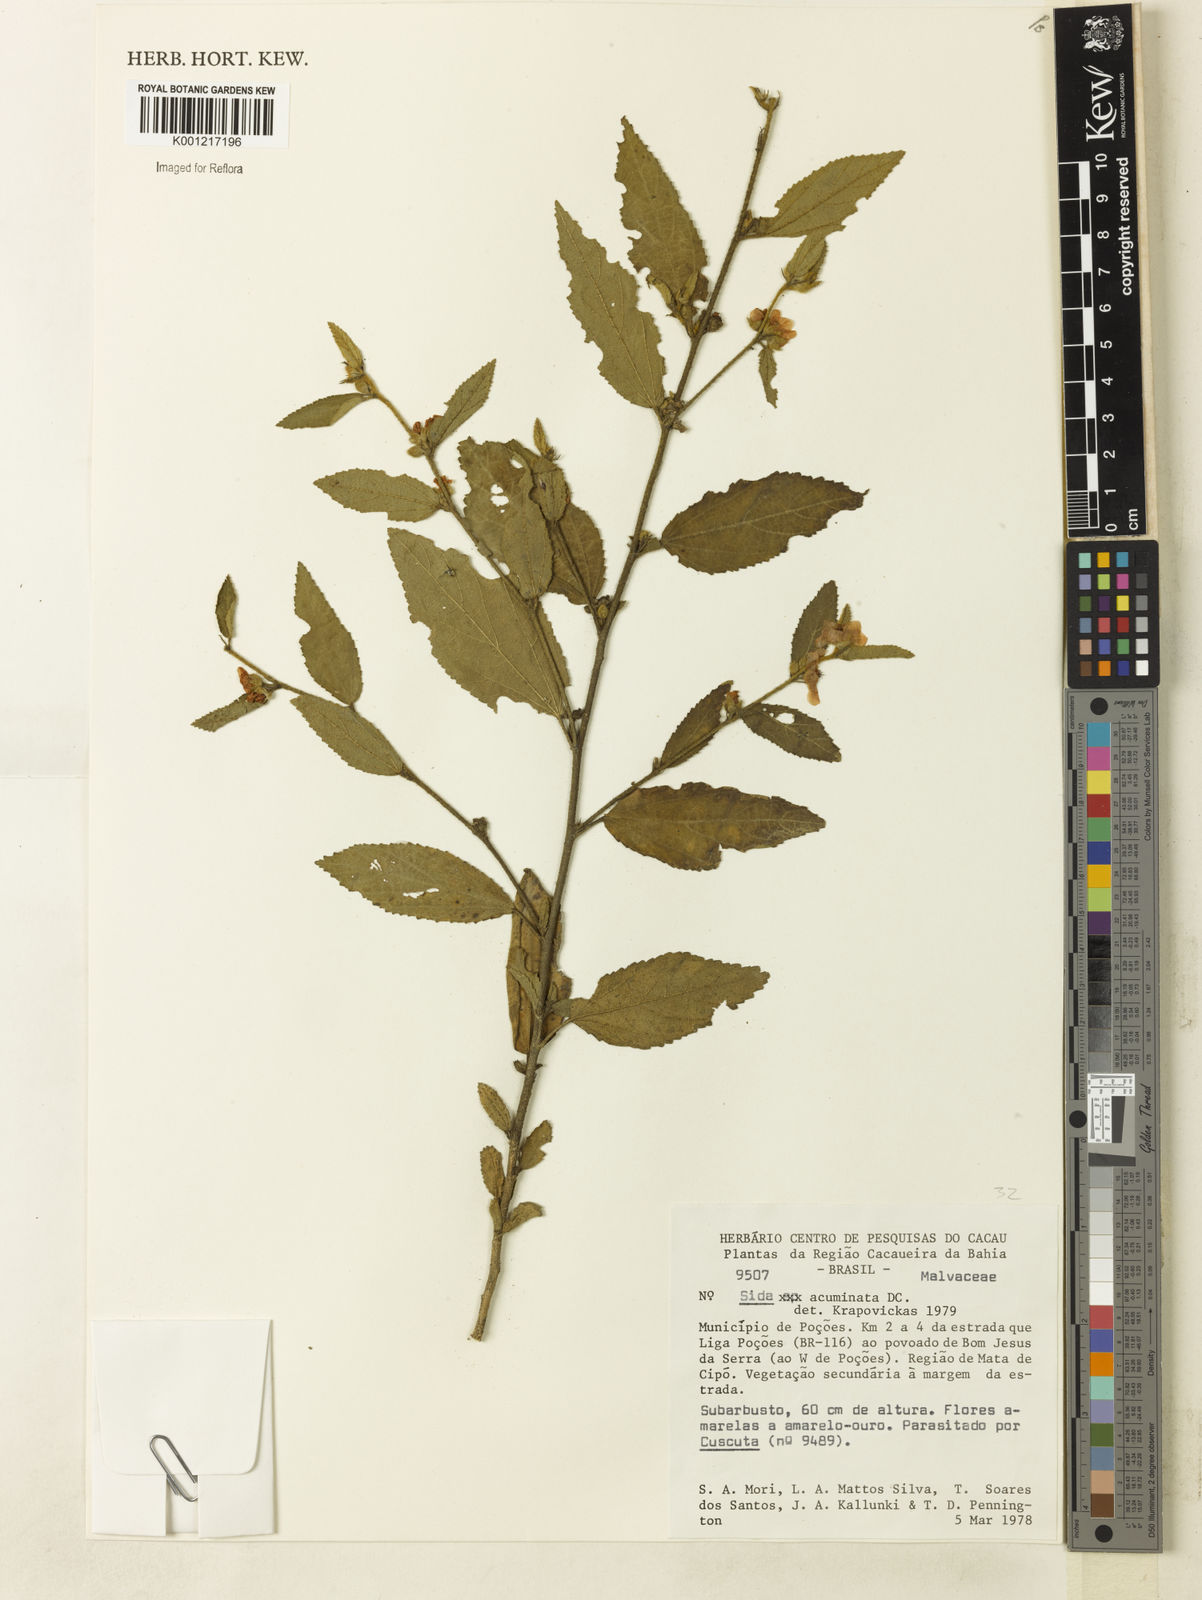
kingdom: Plantae
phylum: Tracheophyta
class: Magnoliopsida
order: Malvales
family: Malvaceae
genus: Sidastrum
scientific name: Sidastrum multiflorum
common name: Manyflower sandmallow
